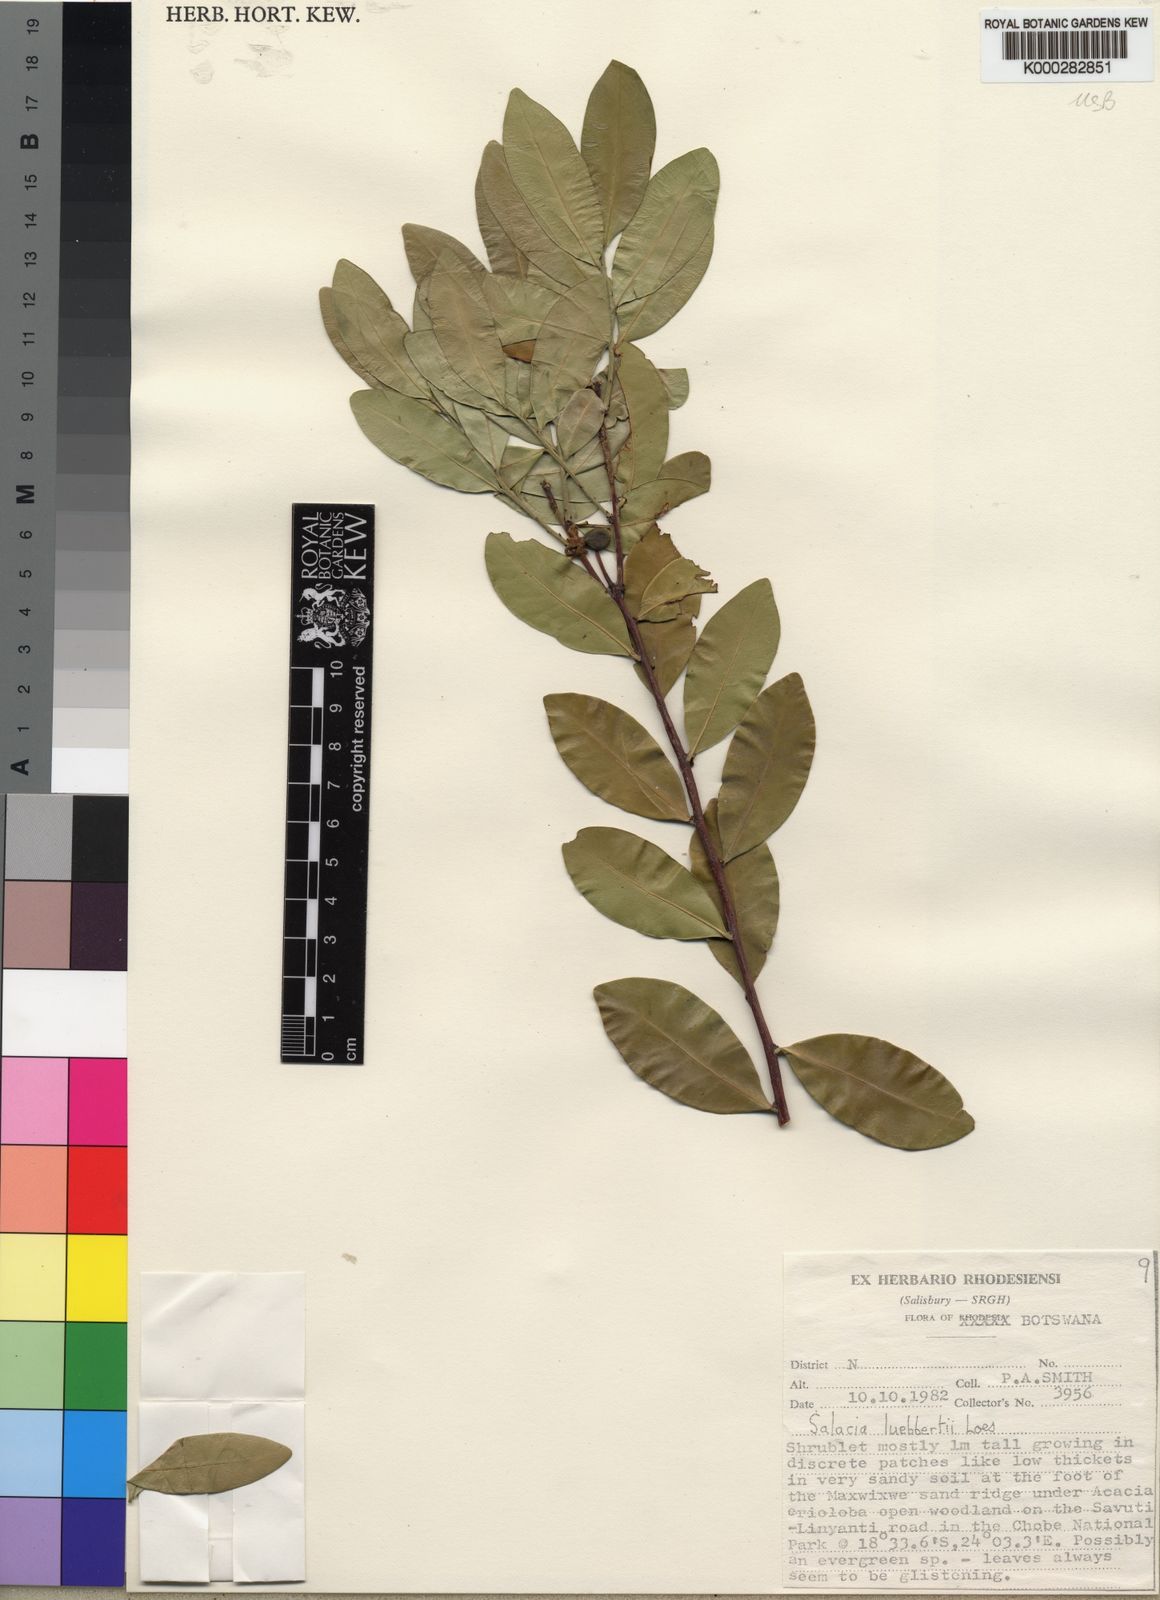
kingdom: Plantae
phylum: Tracheophyta
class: Magnoliopsida
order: Celastrales
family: Celastraceae
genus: Salacia
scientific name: Salacia luebbertii
